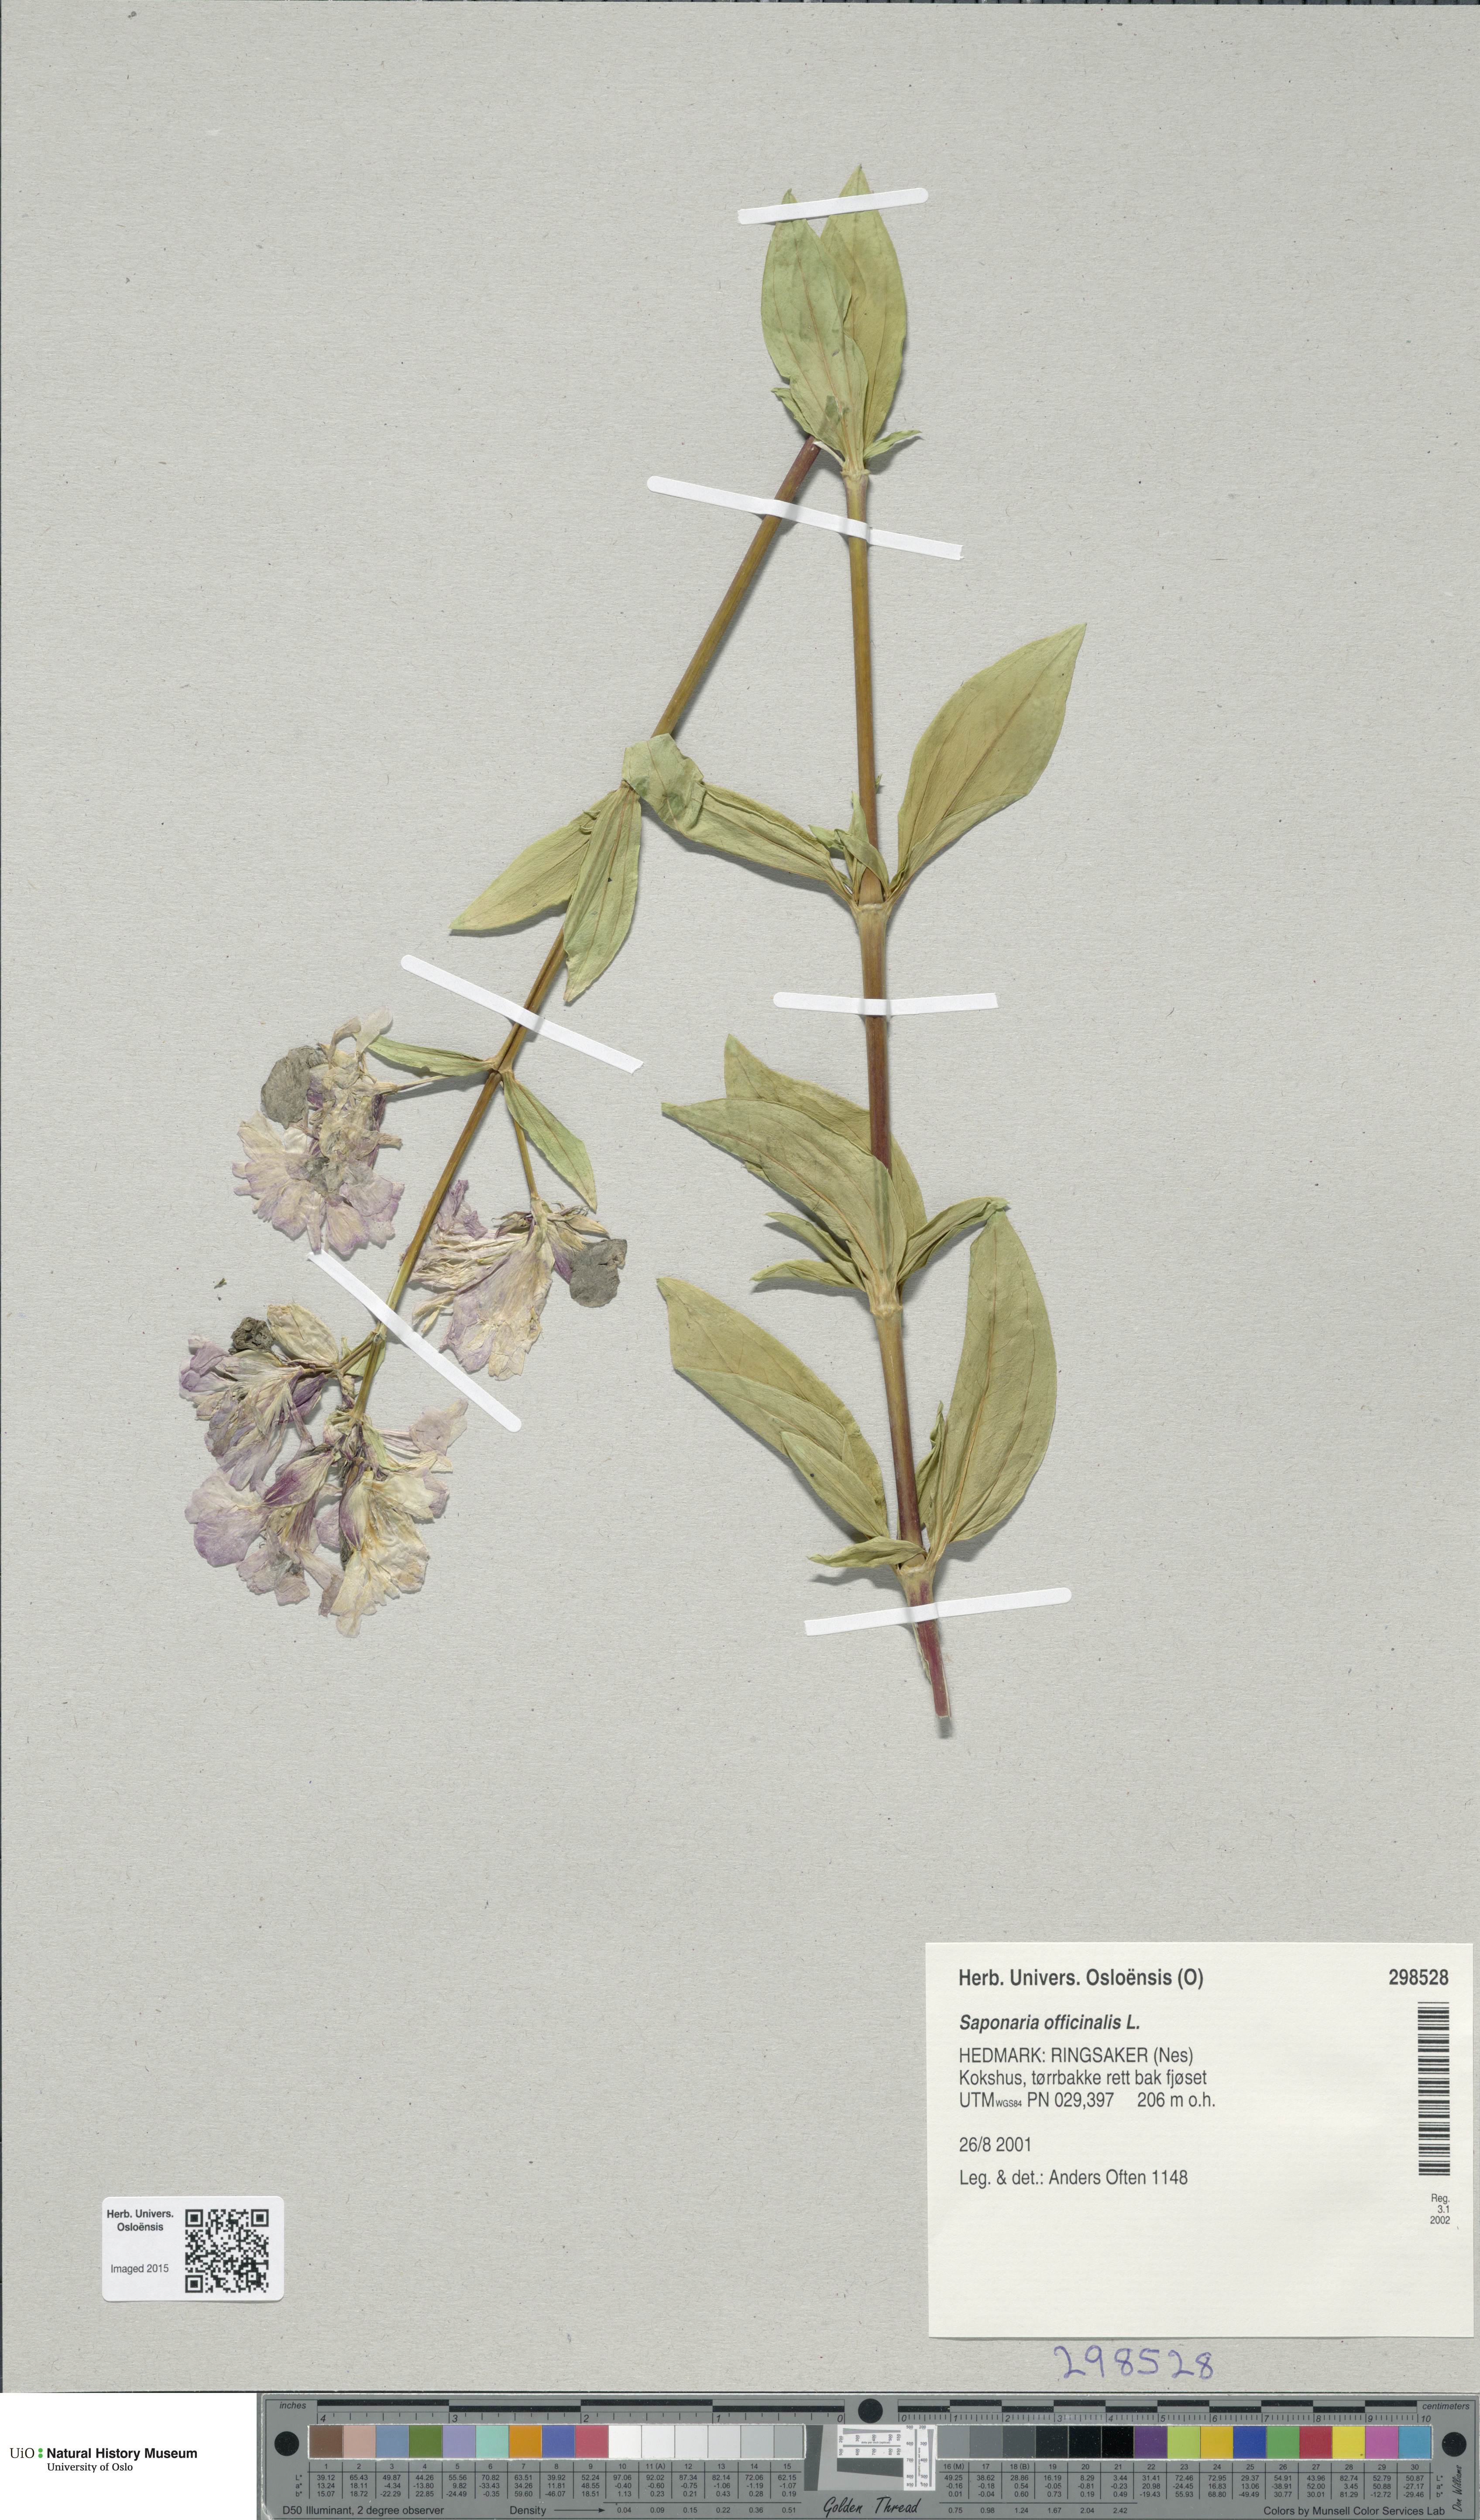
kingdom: Plantae
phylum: Tracheophyta
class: Magnoliopsida
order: Caryophyllales
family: Caryophyllaceae
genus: Saponaria
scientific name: Saponaria officinalis
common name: Soapwort
